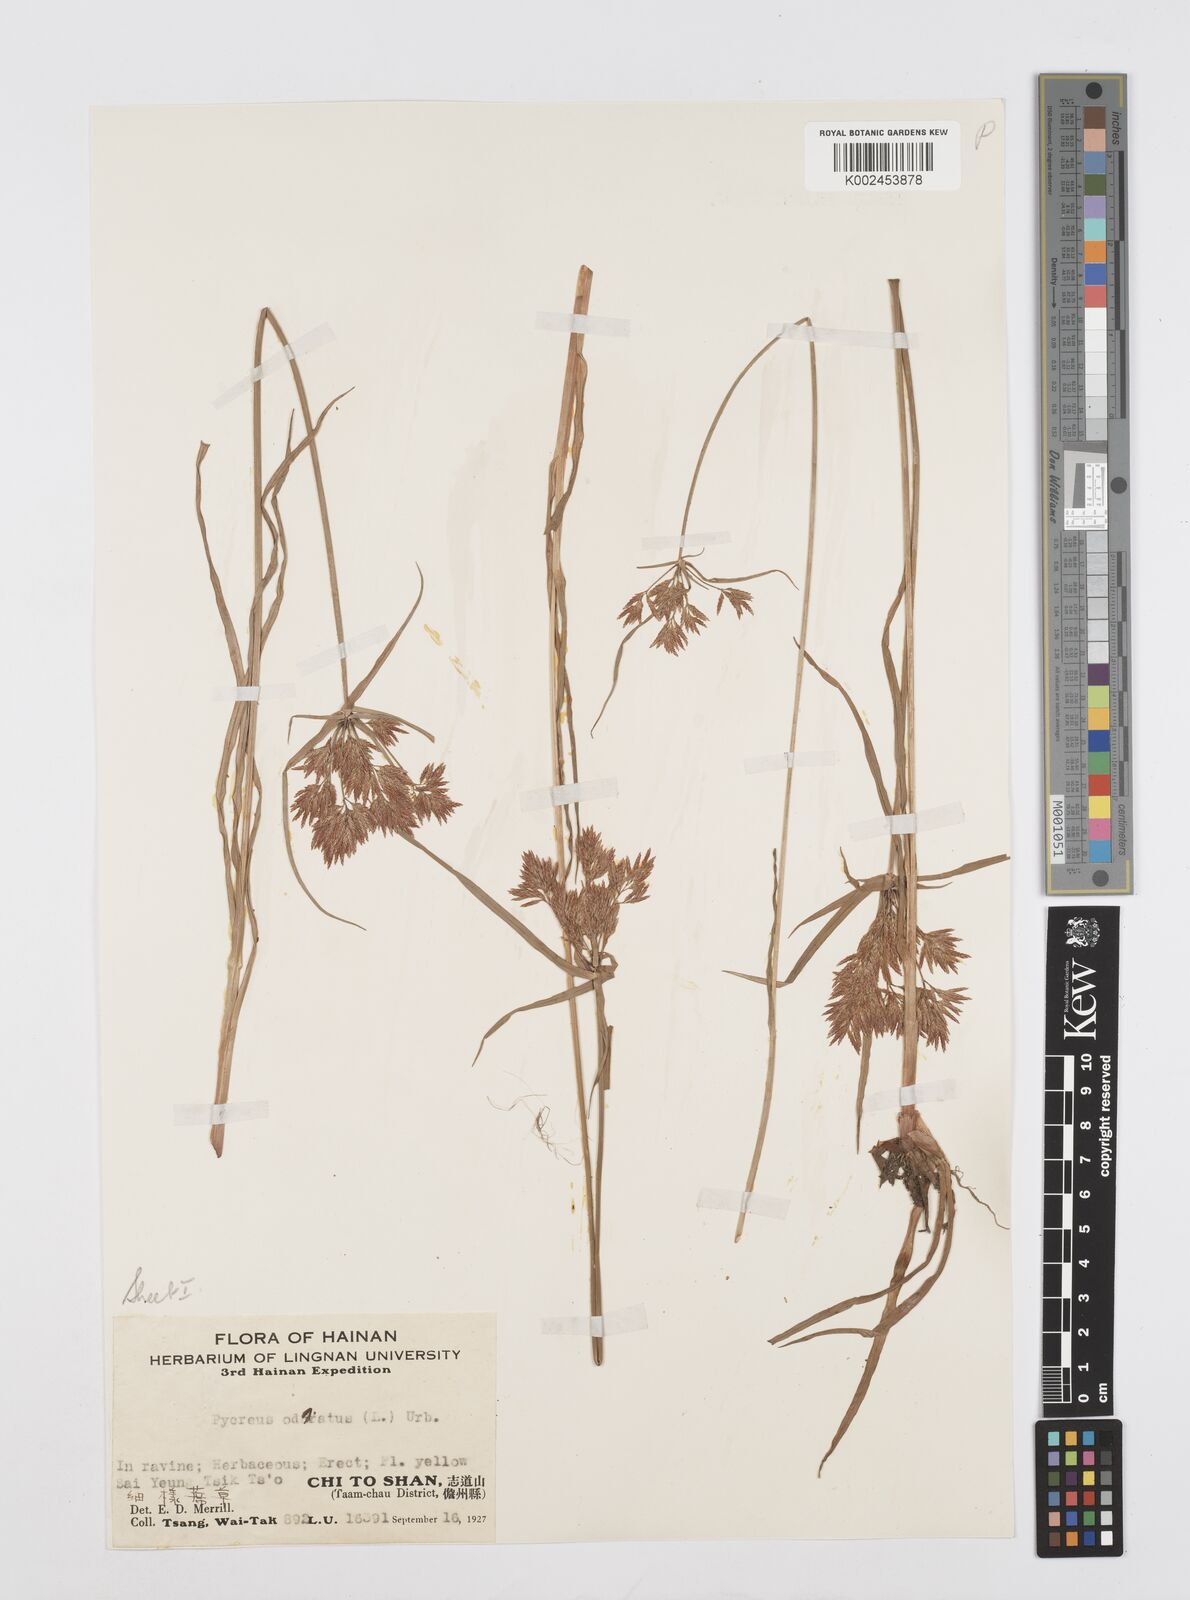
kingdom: Plantae
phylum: Tracheophyta
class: Liliopsida
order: Poales
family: Cyperaceae
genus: Cyperus
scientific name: Cyperus polystachyos
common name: Bunchy flat sedge
